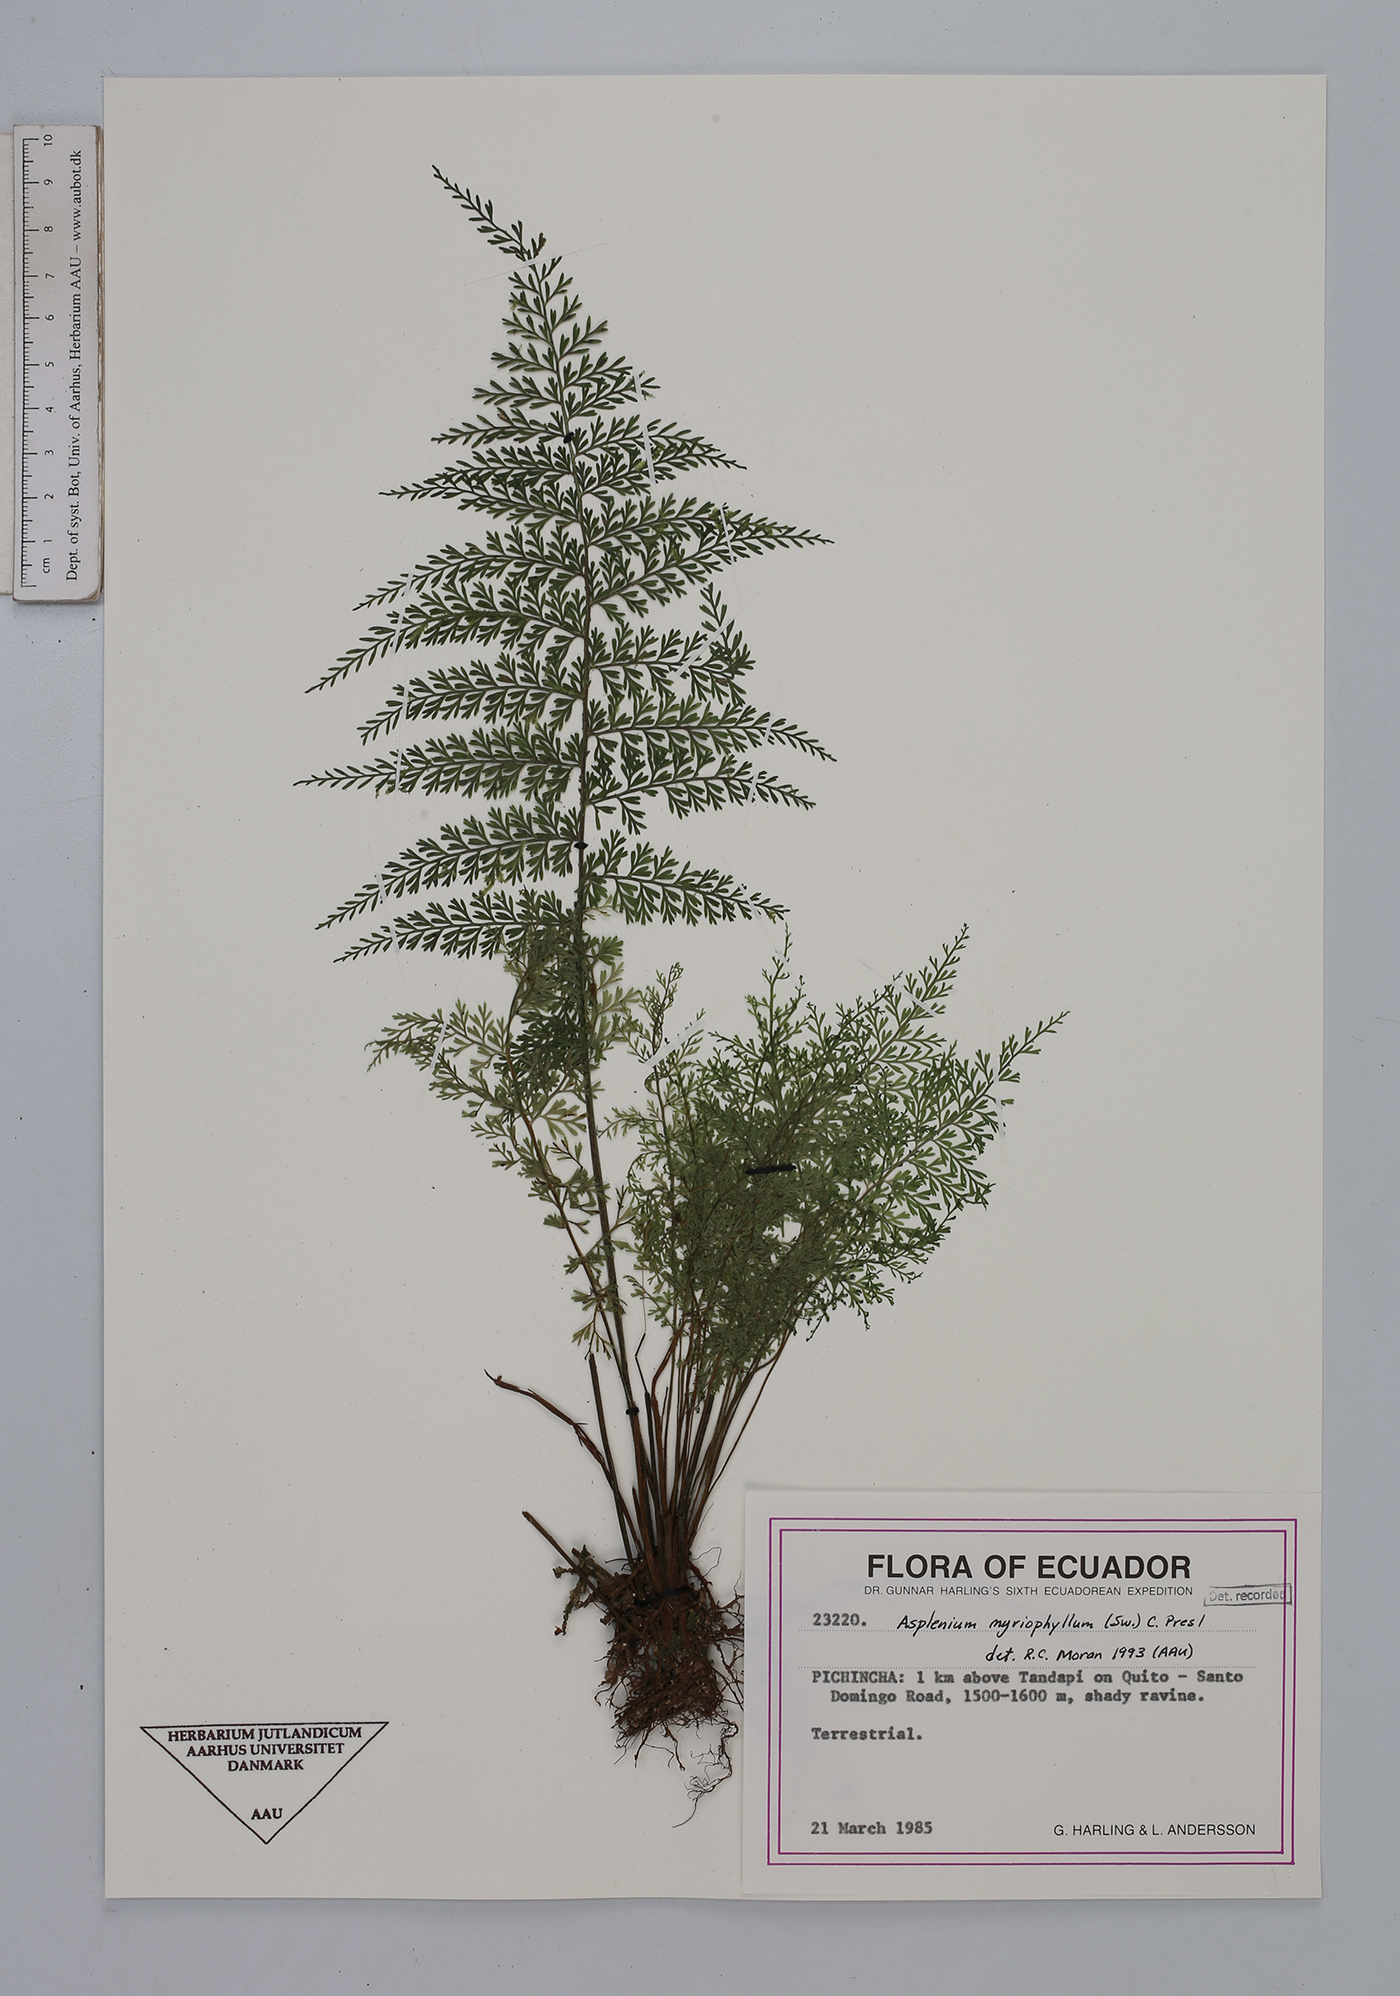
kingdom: Plantae
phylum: Tracheophyta
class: Polypodiopsida
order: Polypodiales
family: Aspleniaceae
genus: Asplenium
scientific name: Asplenium myriophyllum
